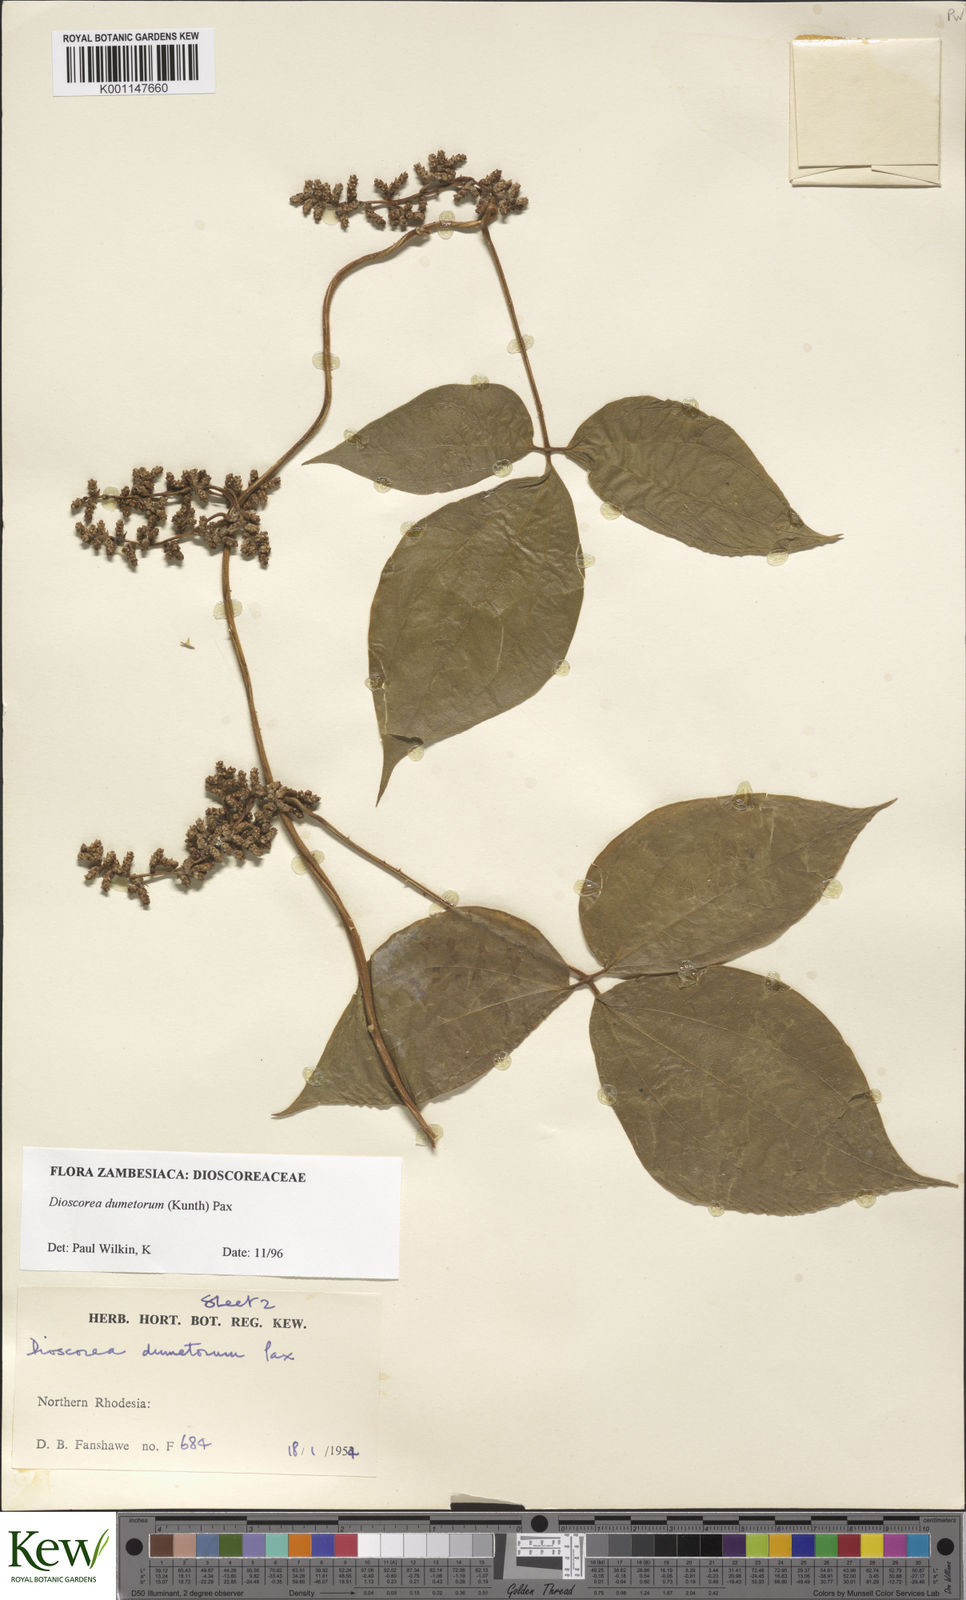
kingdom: Plantae
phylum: Tracheophyta
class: Liliopsida
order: Dioscoreales
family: Dioscoreaceae
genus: Dioscorea
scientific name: Dioscorea dumetorum
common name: African bitter yam
